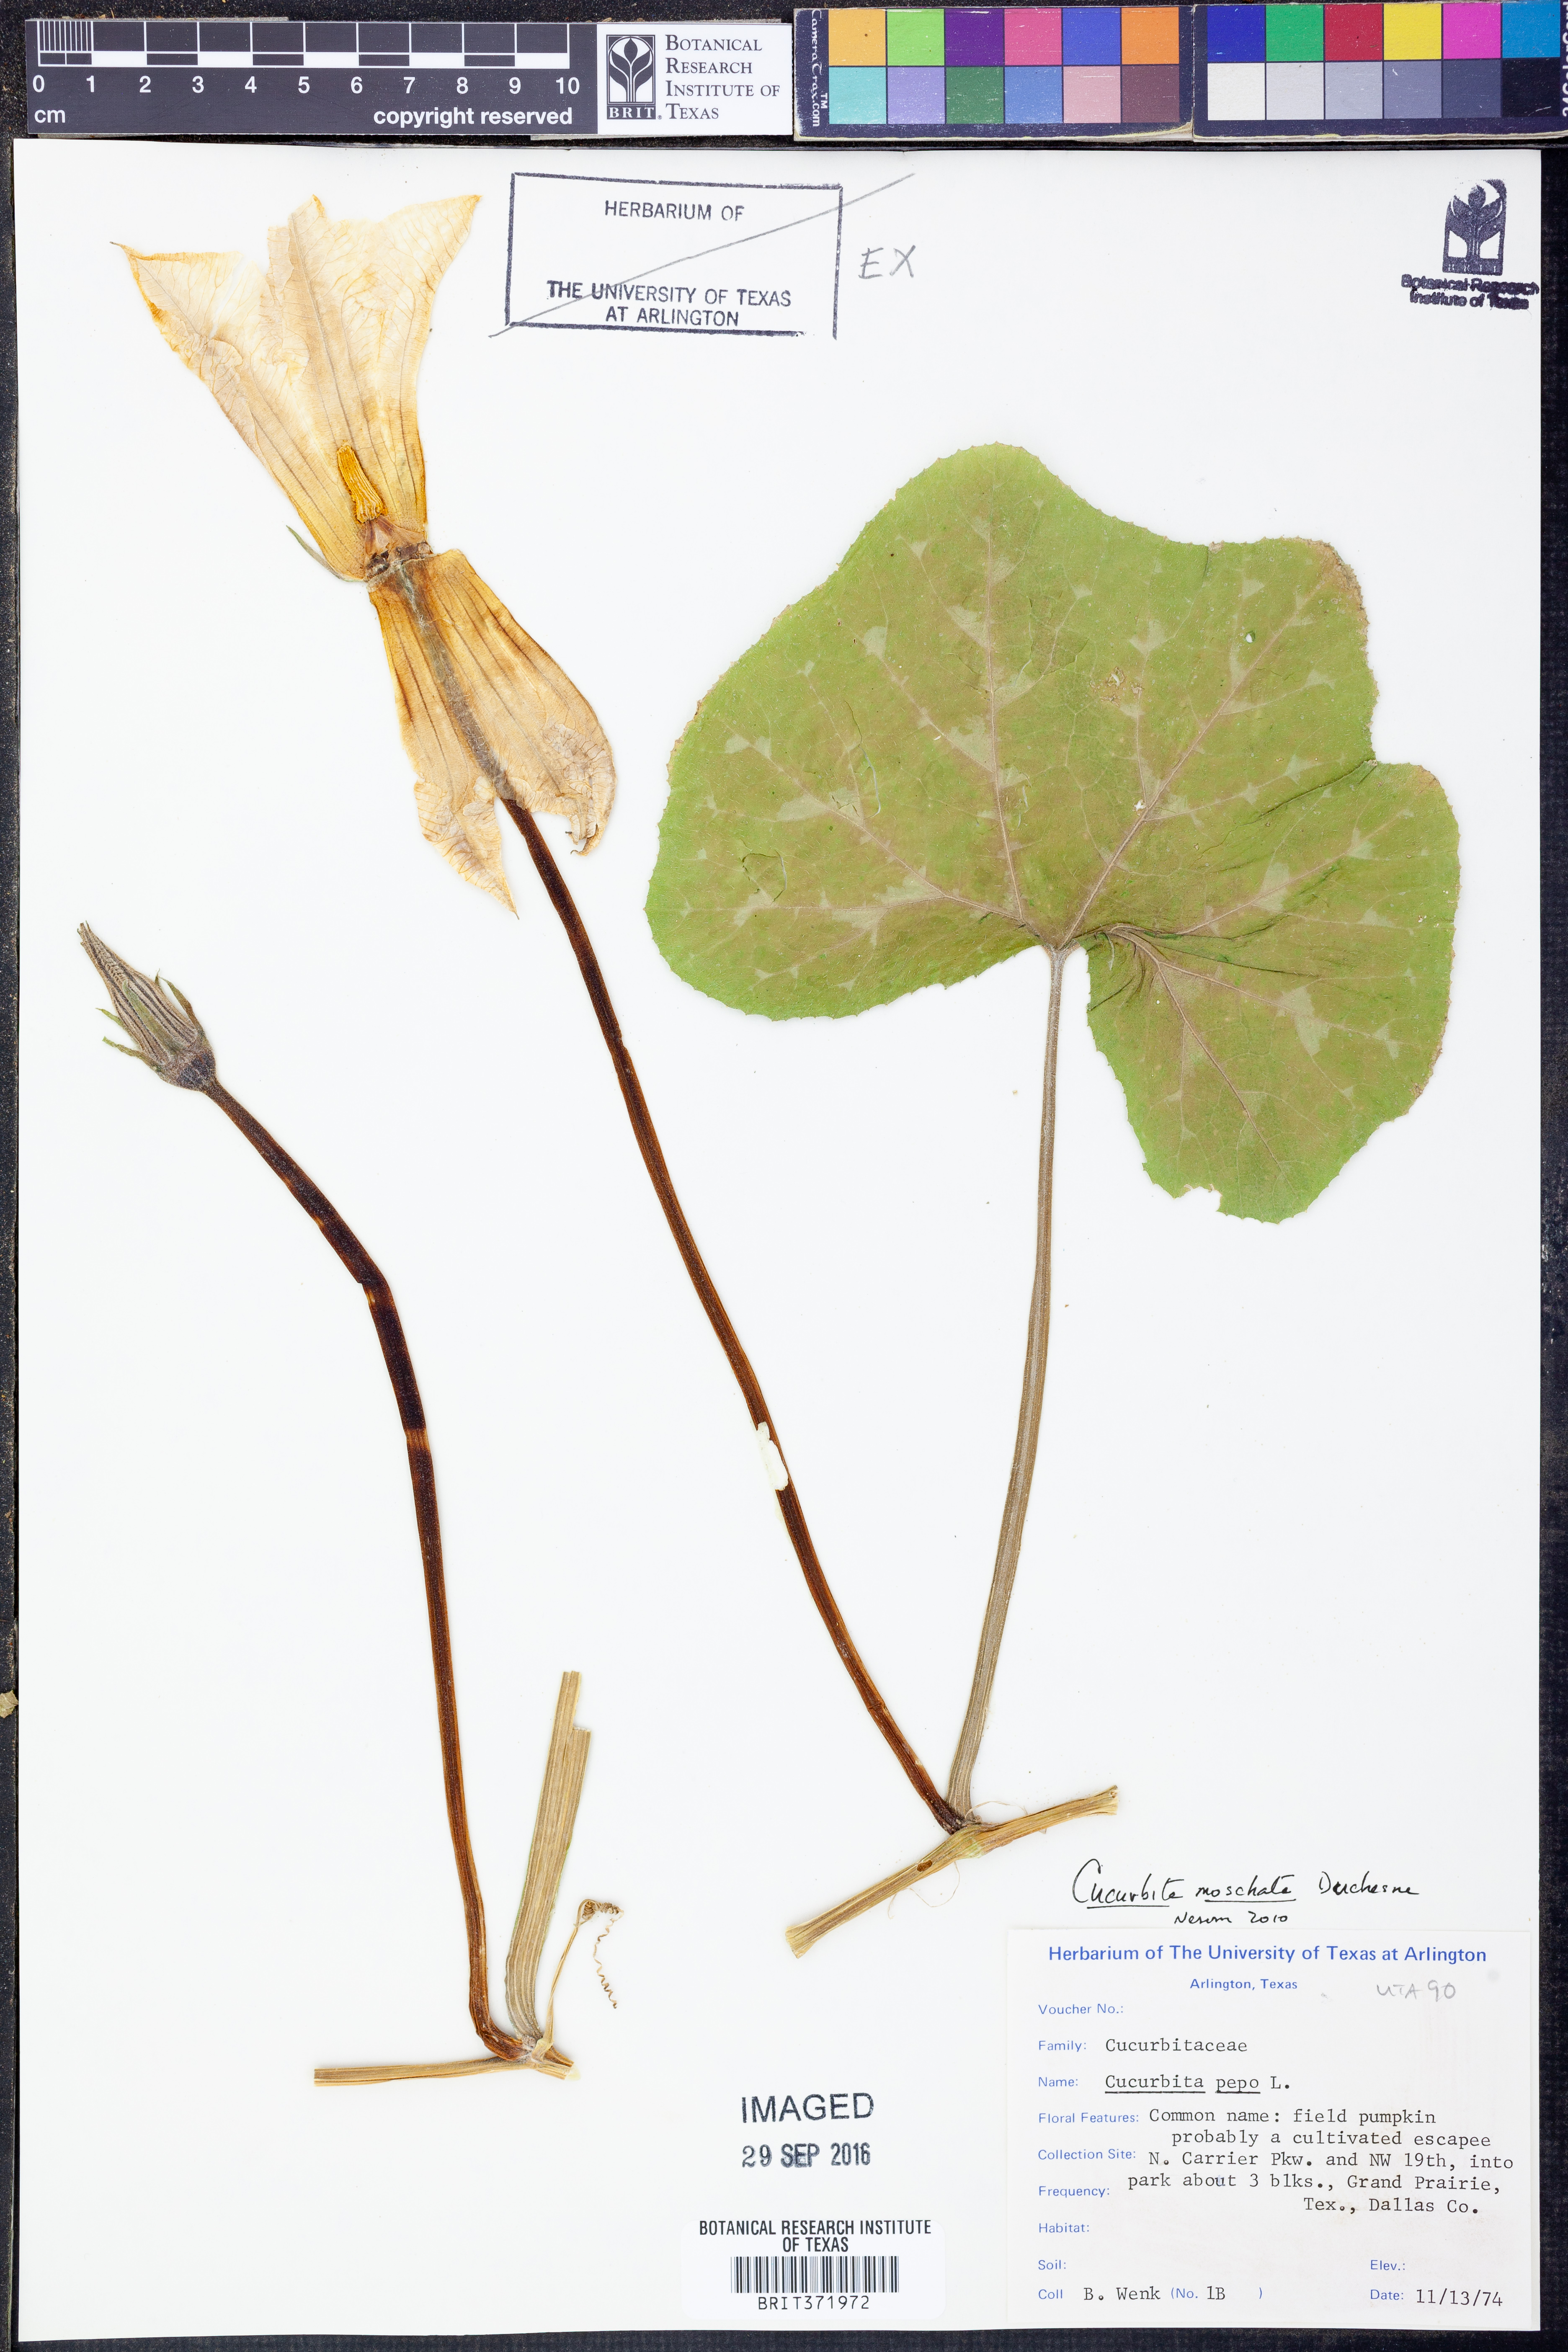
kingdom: Plantae
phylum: Tracheophyta
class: Magnoliopsida
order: Cucurbitales
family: Cucurbitaceae
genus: Cucurbita
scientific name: Cucurbita moschata
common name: Squash / pumpkin
